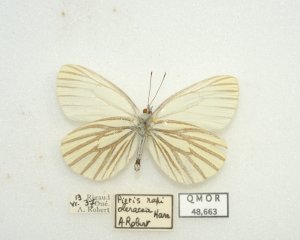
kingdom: Animalia
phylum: Arthropoda
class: Insecta
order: Lepidoptera
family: Pieridae
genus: Pieris
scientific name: Pieris oleracea
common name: Mustard White
